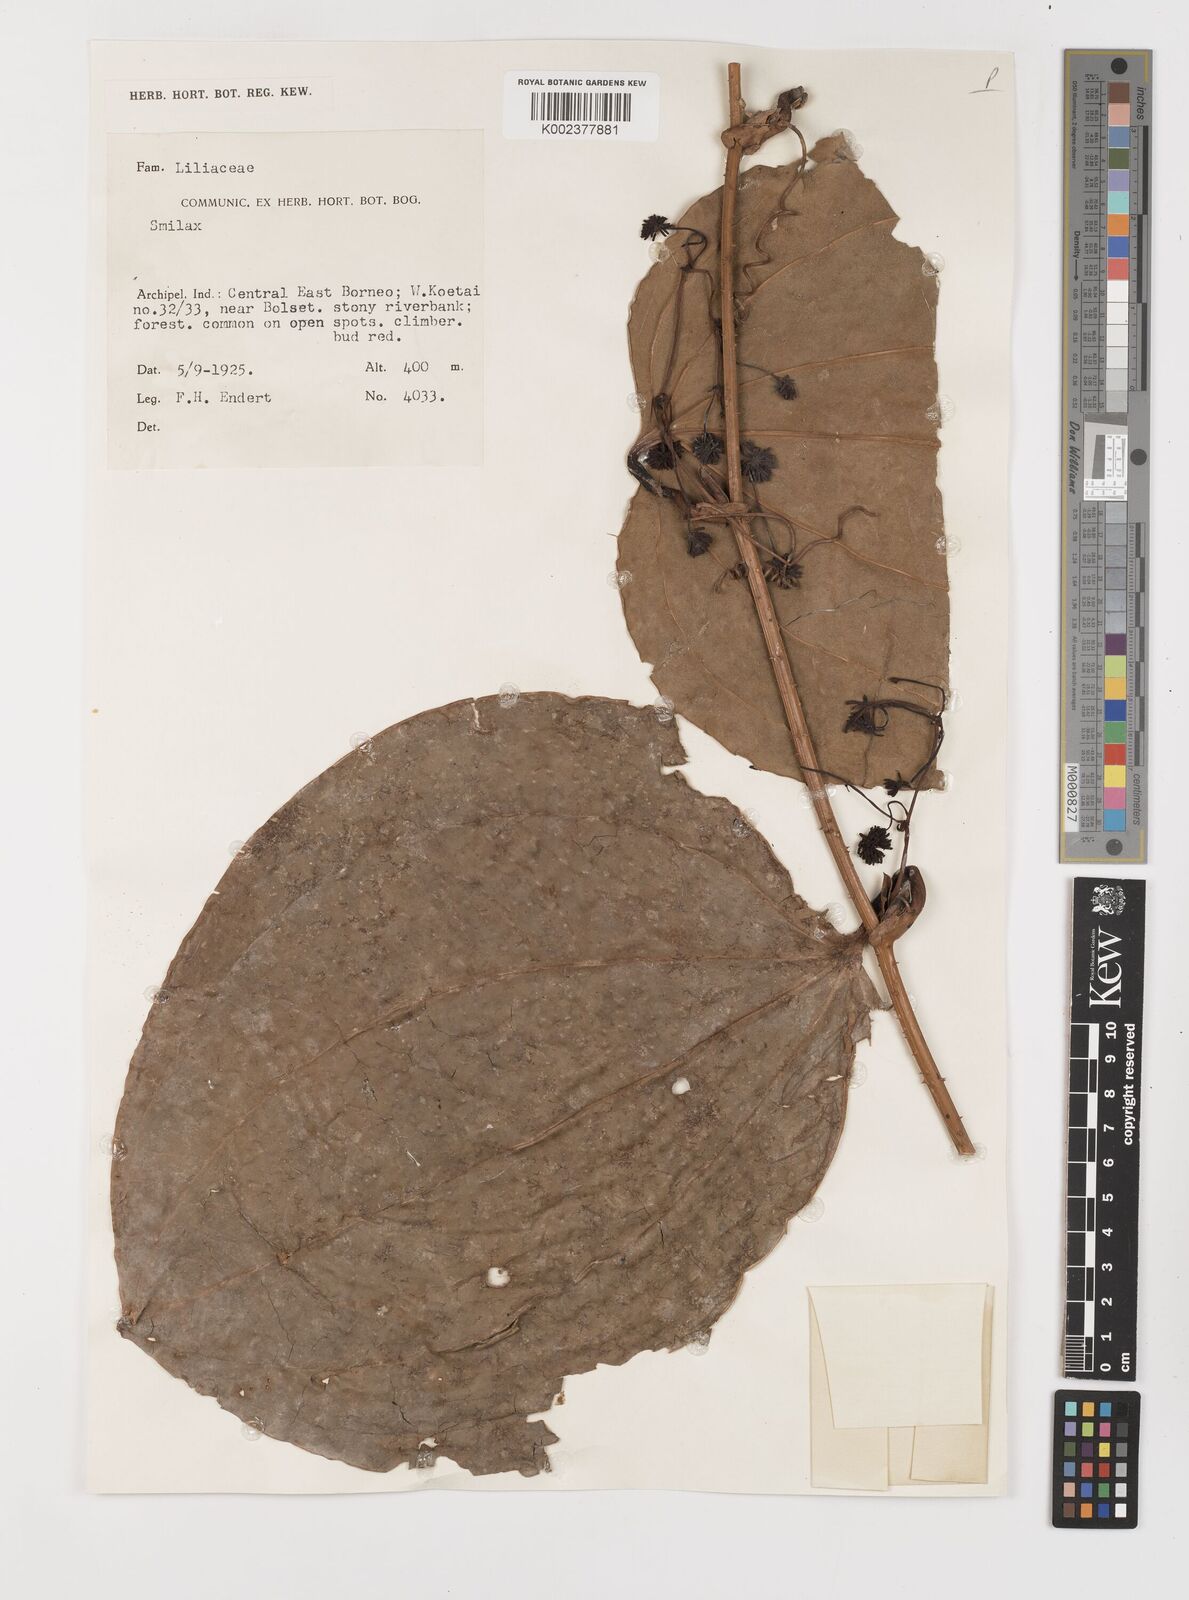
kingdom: Plantae
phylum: Tracheophyta
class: Liliopsida
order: Liliales
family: Smilacaceae
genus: Smilax
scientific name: Smilax
